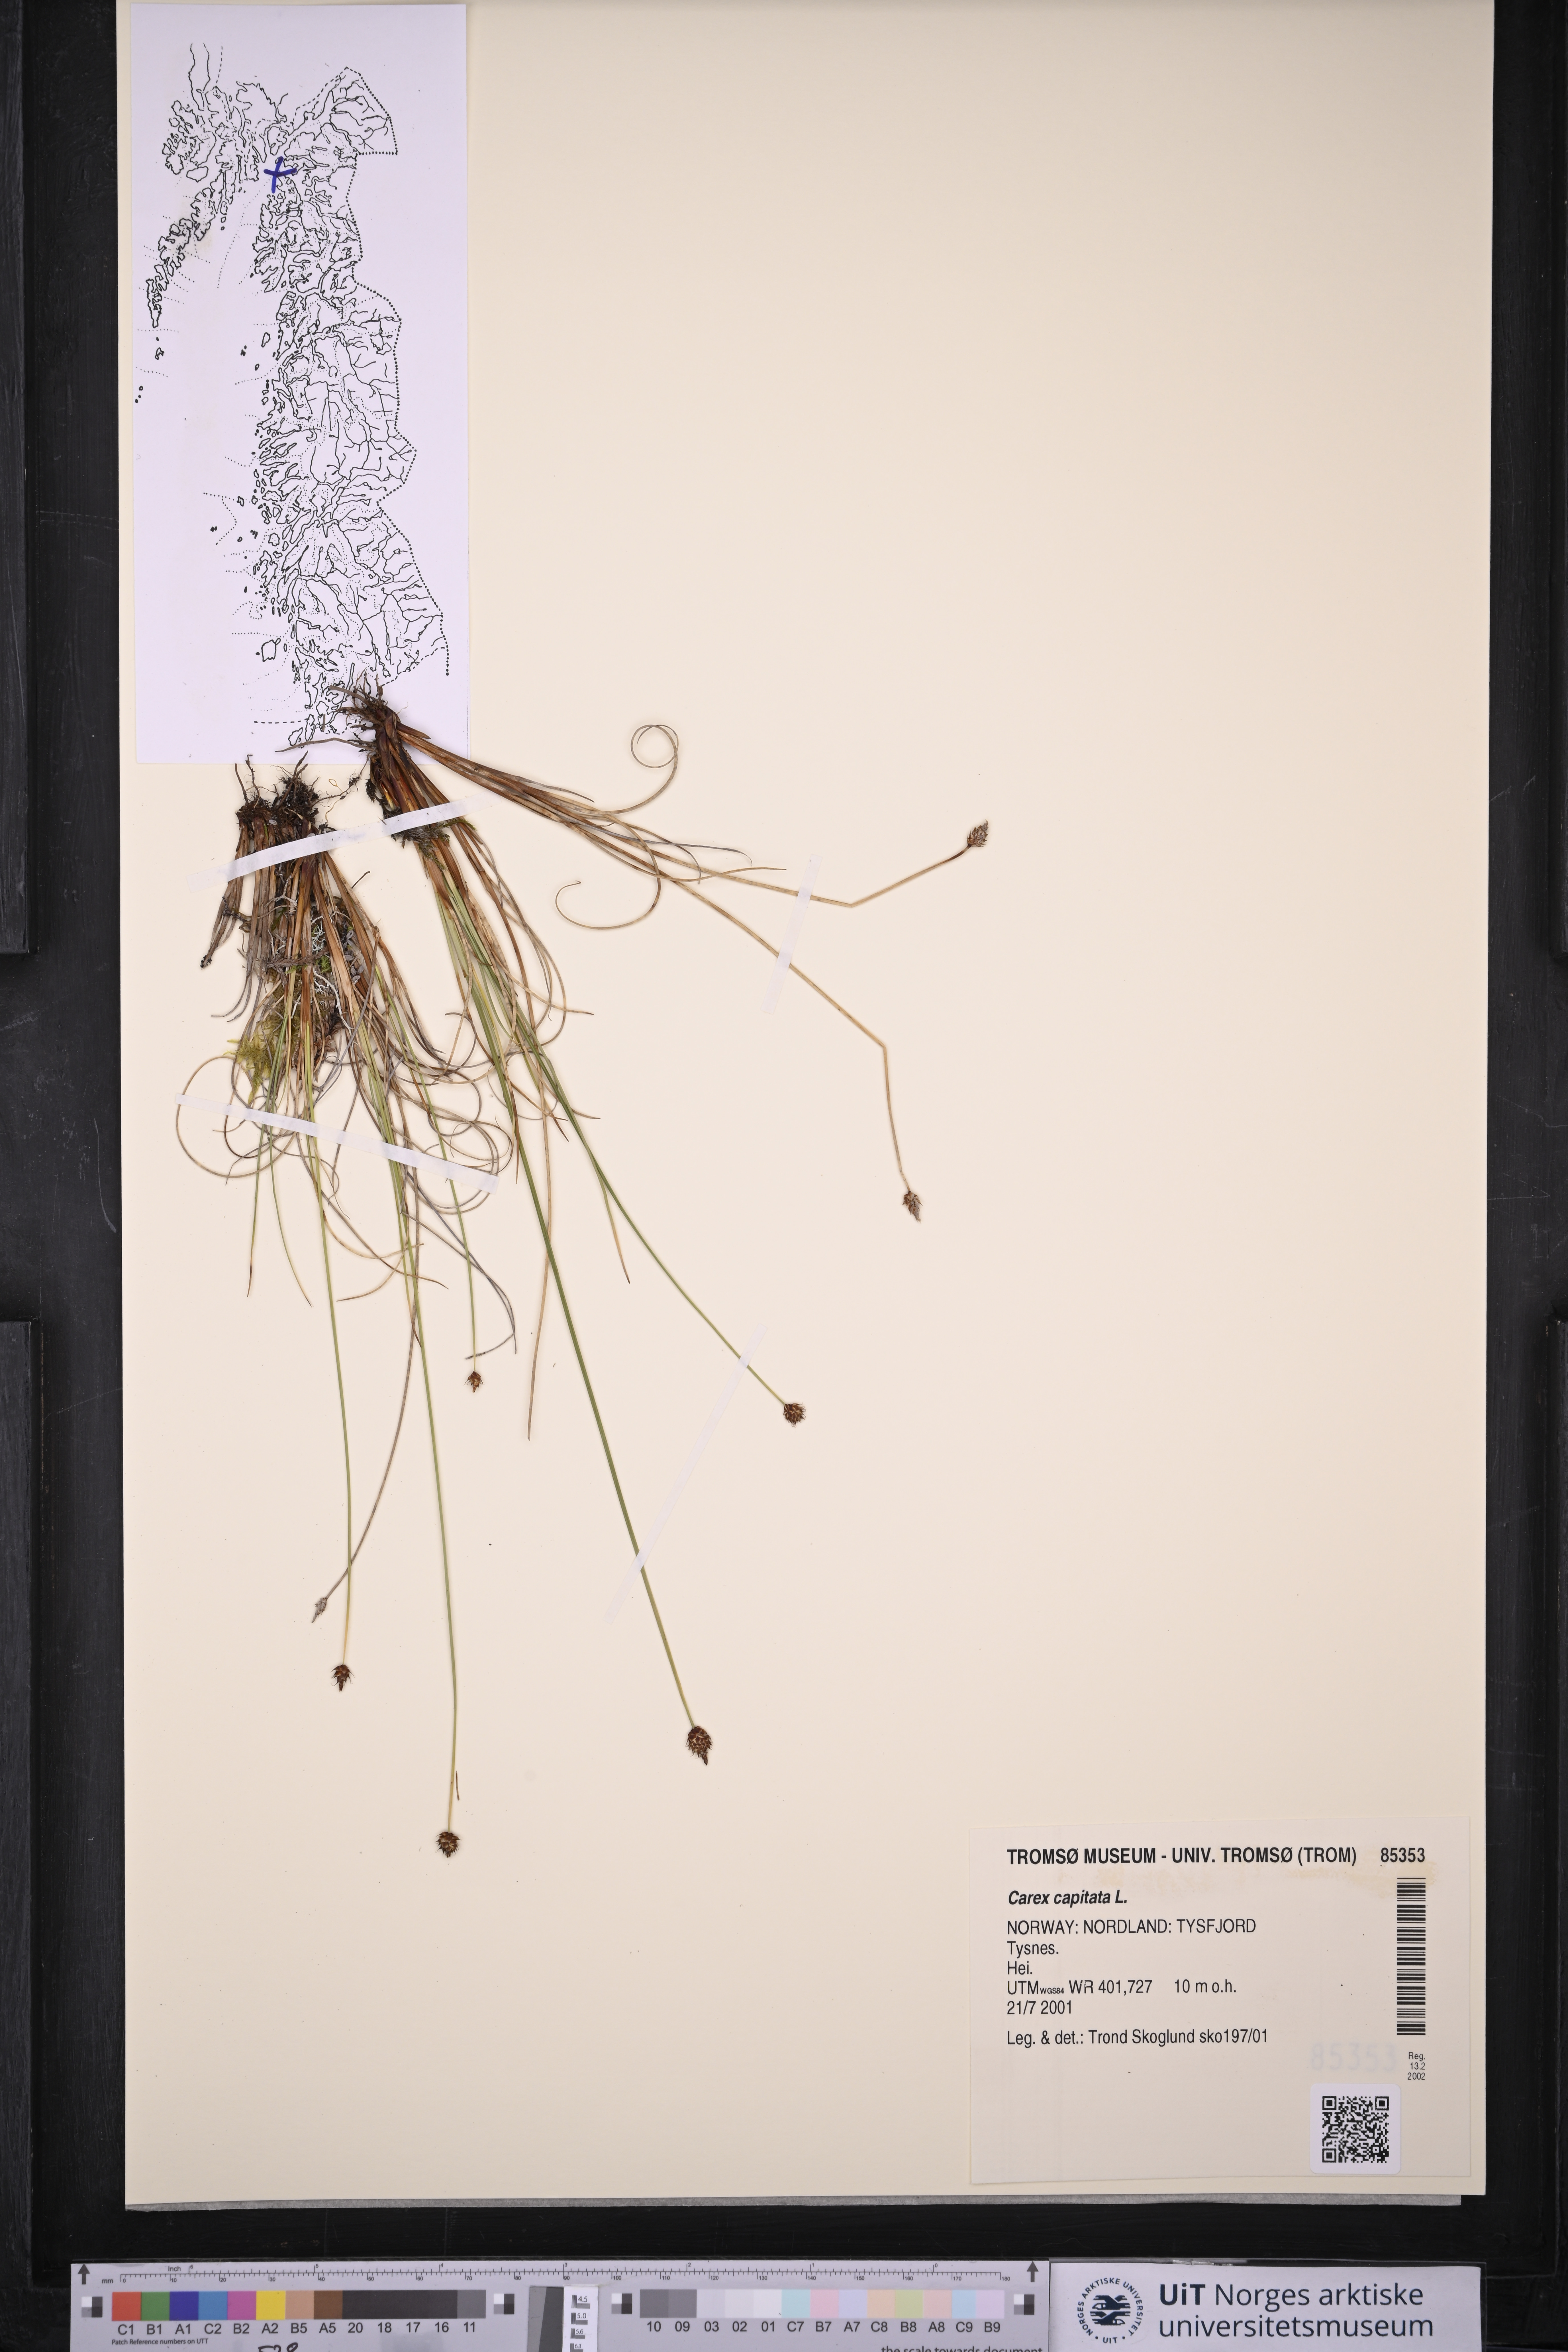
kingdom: Plantae
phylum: Tracheophyta
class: Liliopsida
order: Poales
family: Cyperaceae
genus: Carex
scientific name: Carex capitata
